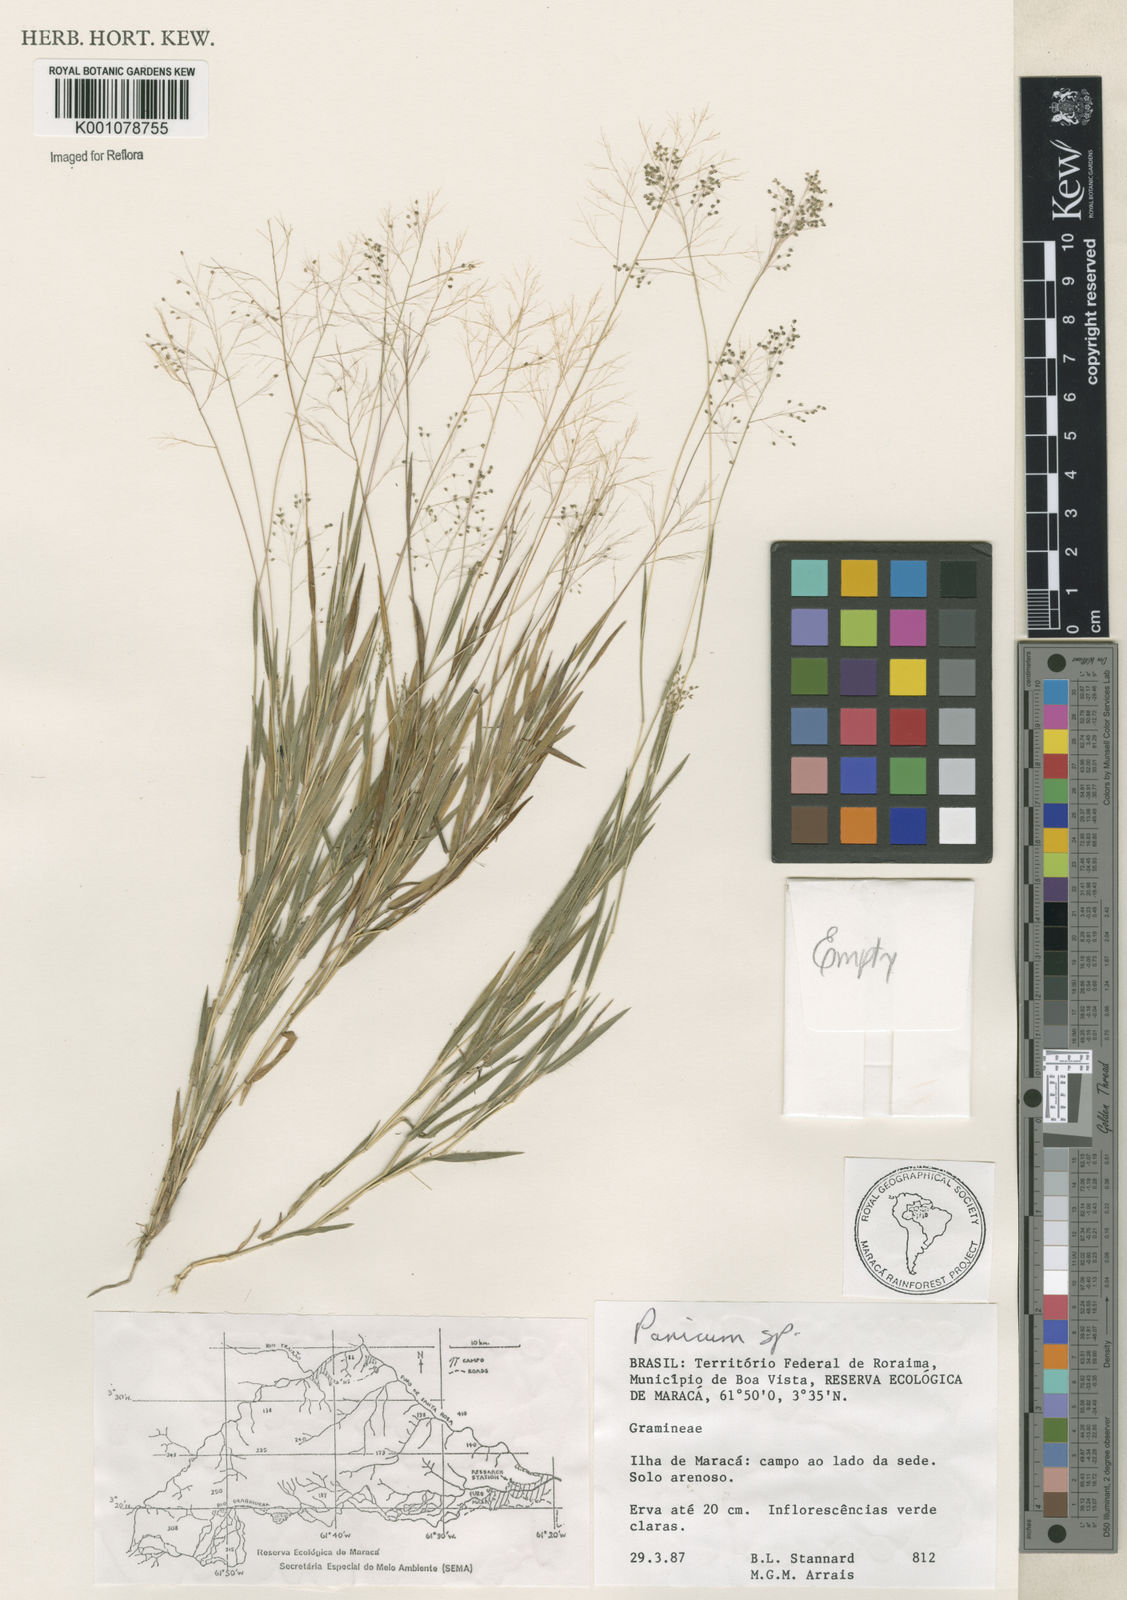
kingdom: Plantae
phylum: Tracheophyta
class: Liliopsida
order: Poales
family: Poaceae
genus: Panicum
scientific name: Panicum
